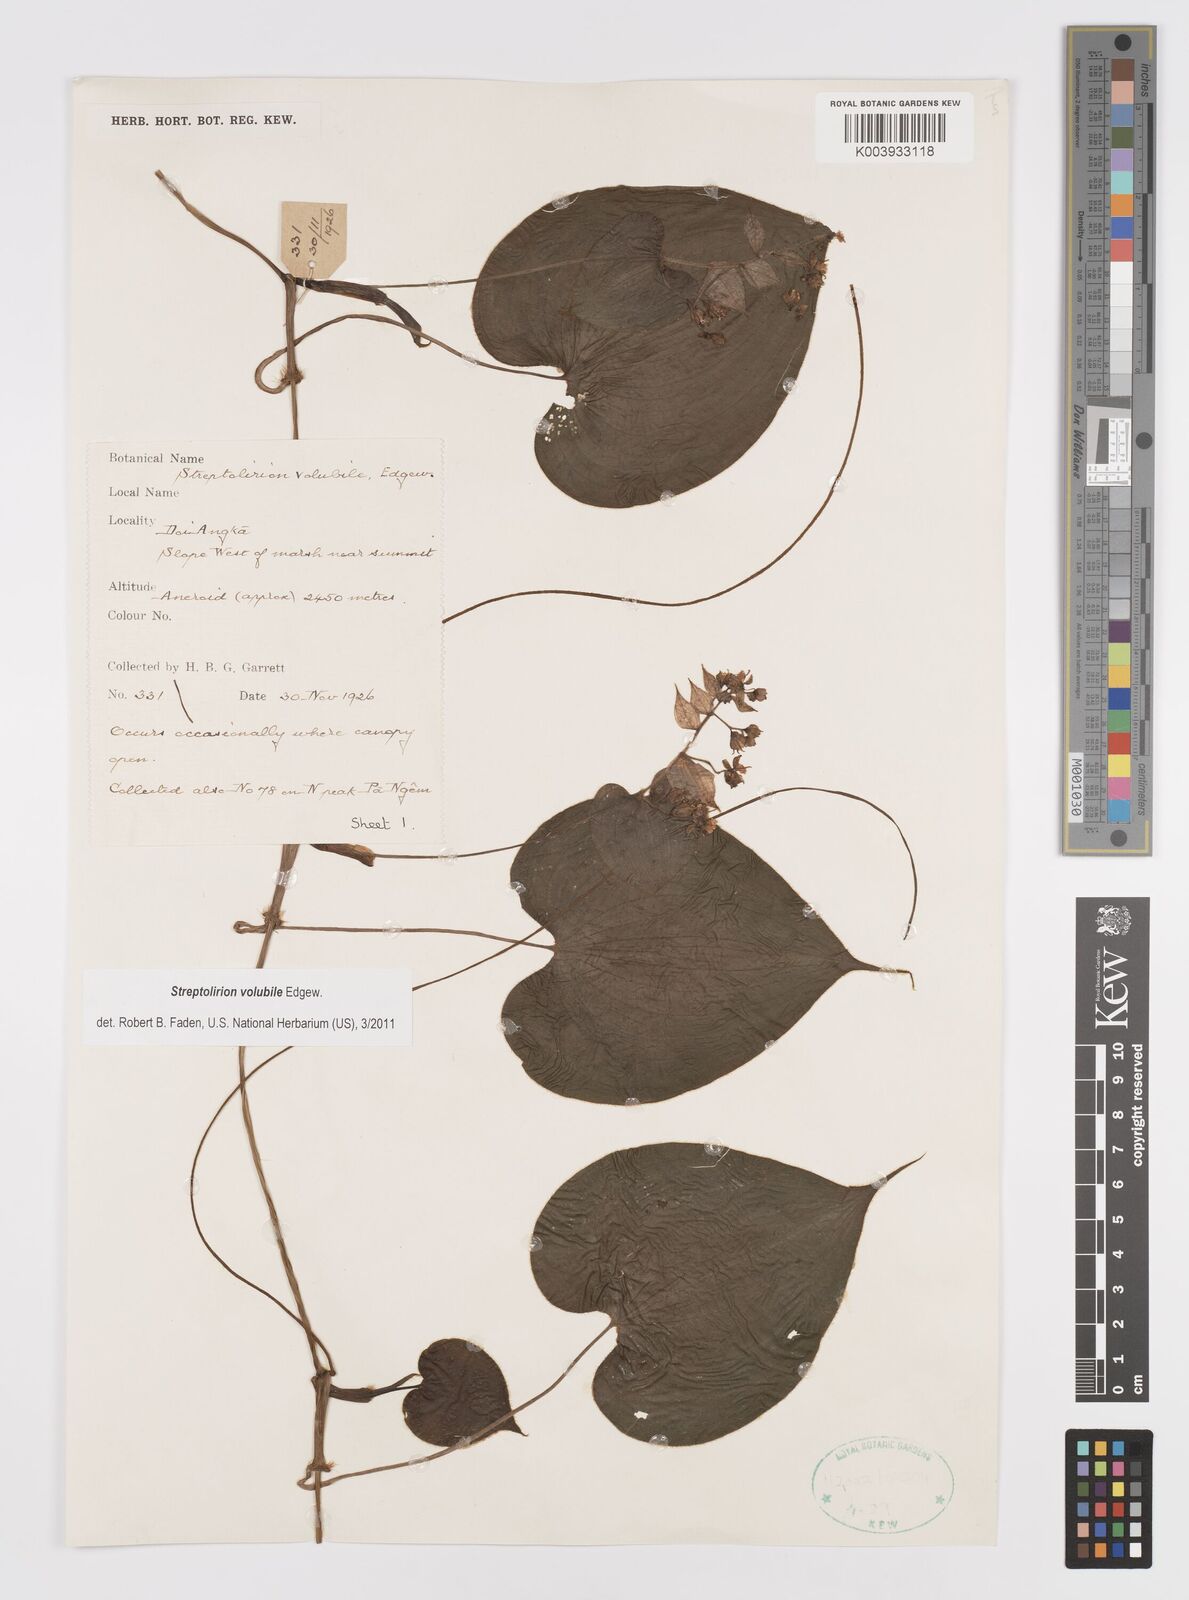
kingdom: Plantae
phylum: Tracheophyta
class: Liliopsida
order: Commelinales
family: Commelinaceae
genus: Streptolirion
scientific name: Streptolirion volubile
